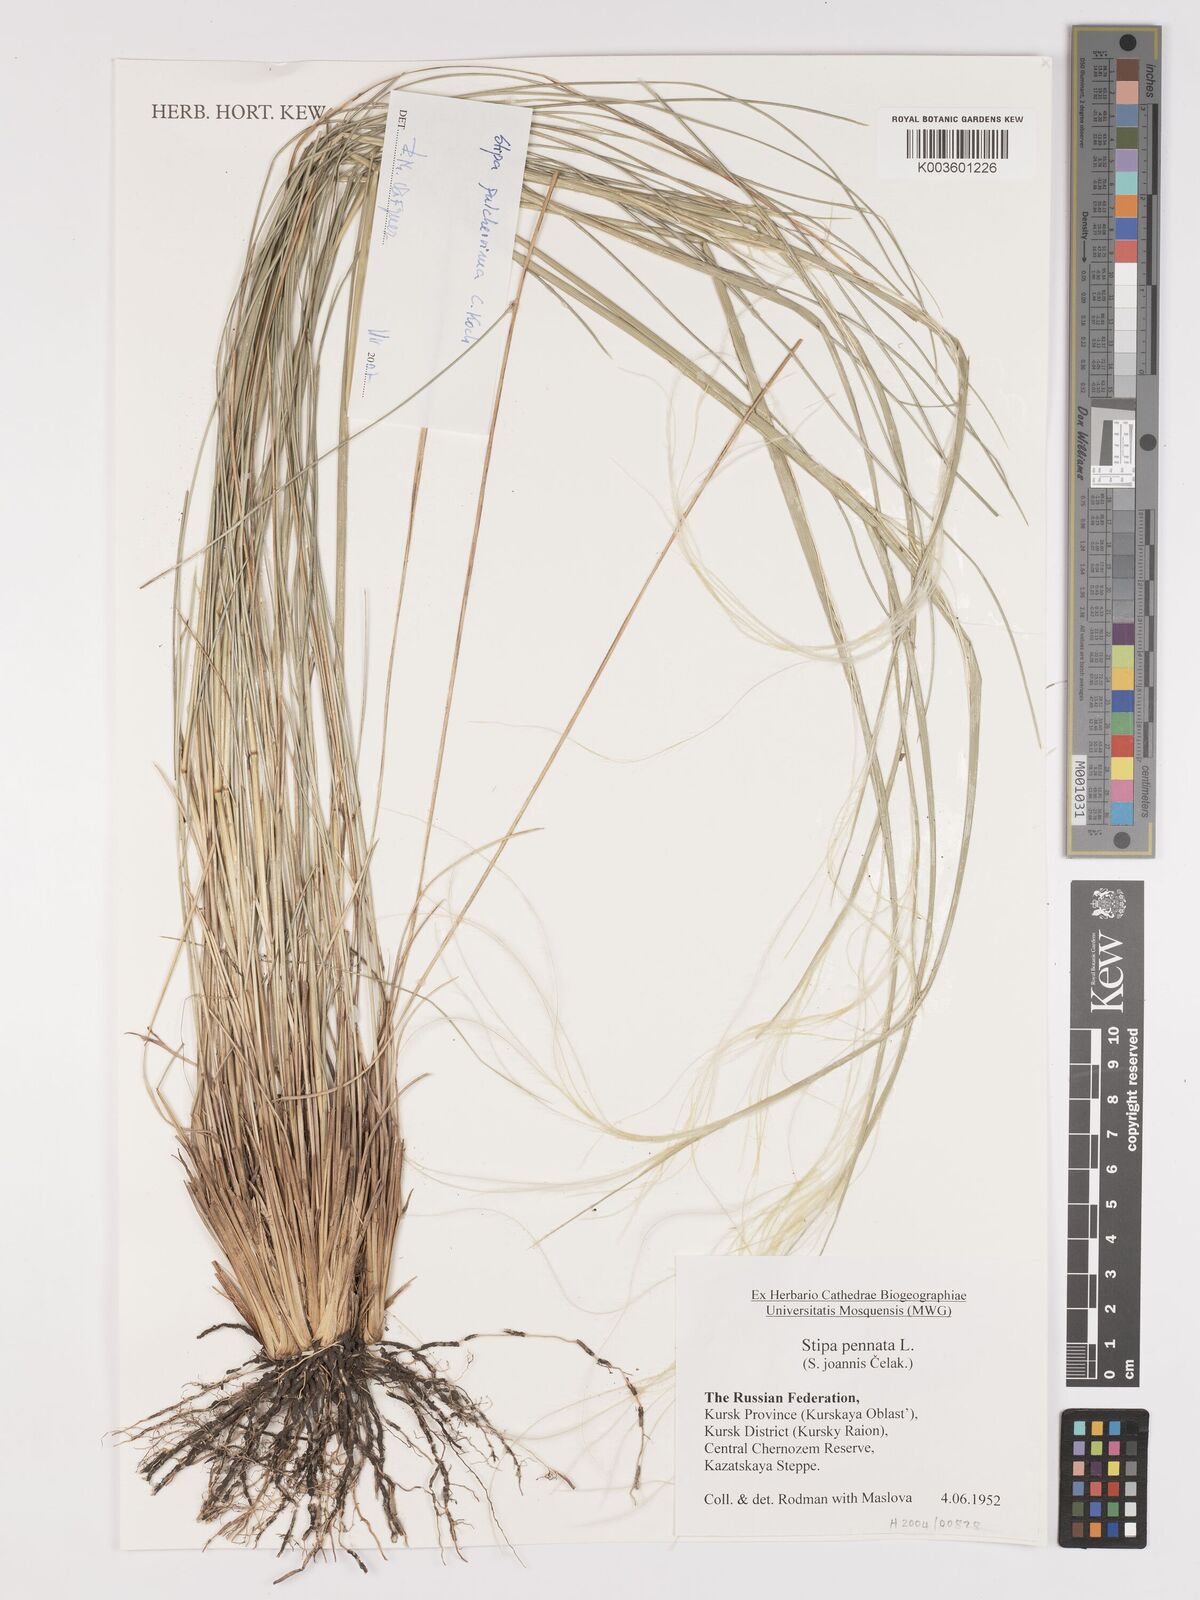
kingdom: Plantae
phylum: Tracheophyta
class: Liliopsida
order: Poales
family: Poaceae
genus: Stipa
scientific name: Stipa pennata
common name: European feather grass
